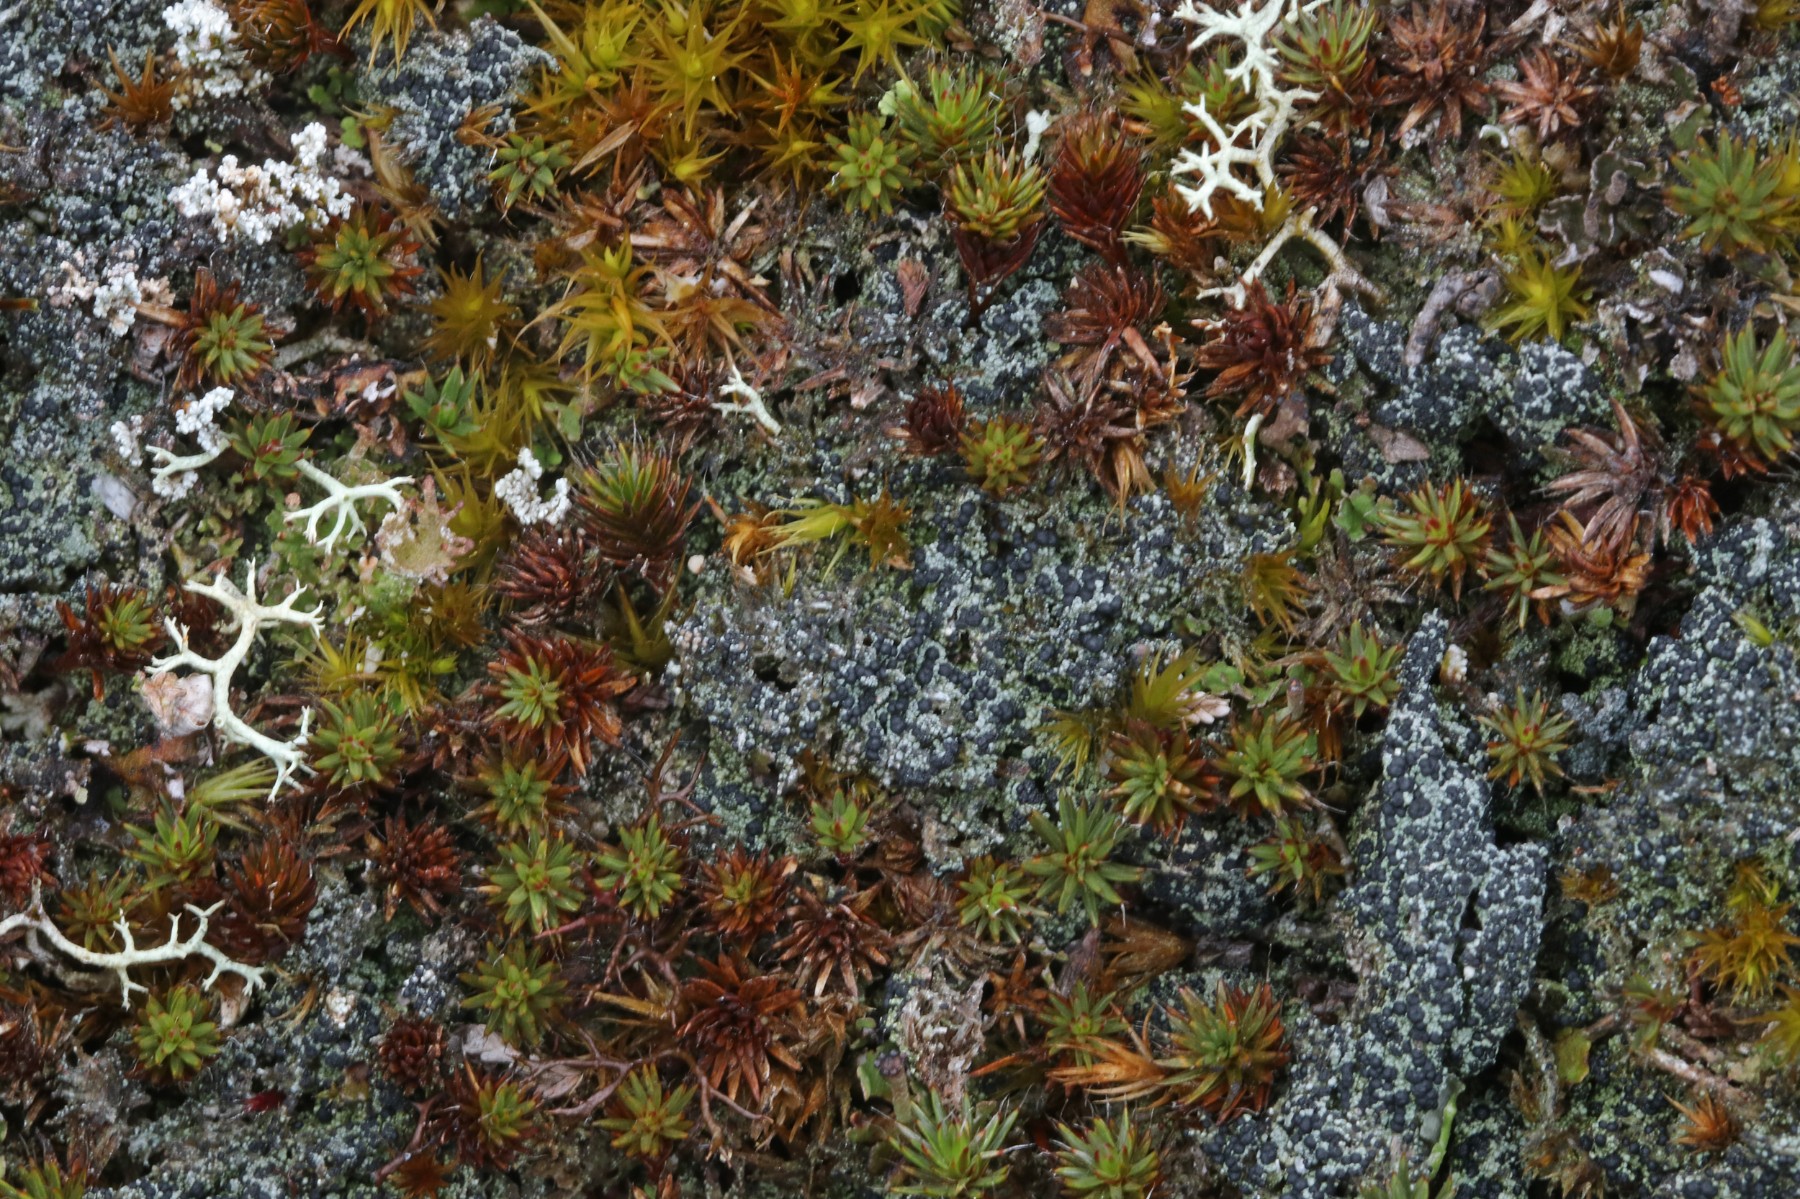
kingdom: Fungi
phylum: Ascomycota
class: Lecanoromycetes
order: Lecanorales
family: Byssolomataceae
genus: Micarea
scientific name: Micarea lignaria
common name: tørve-knaplav
